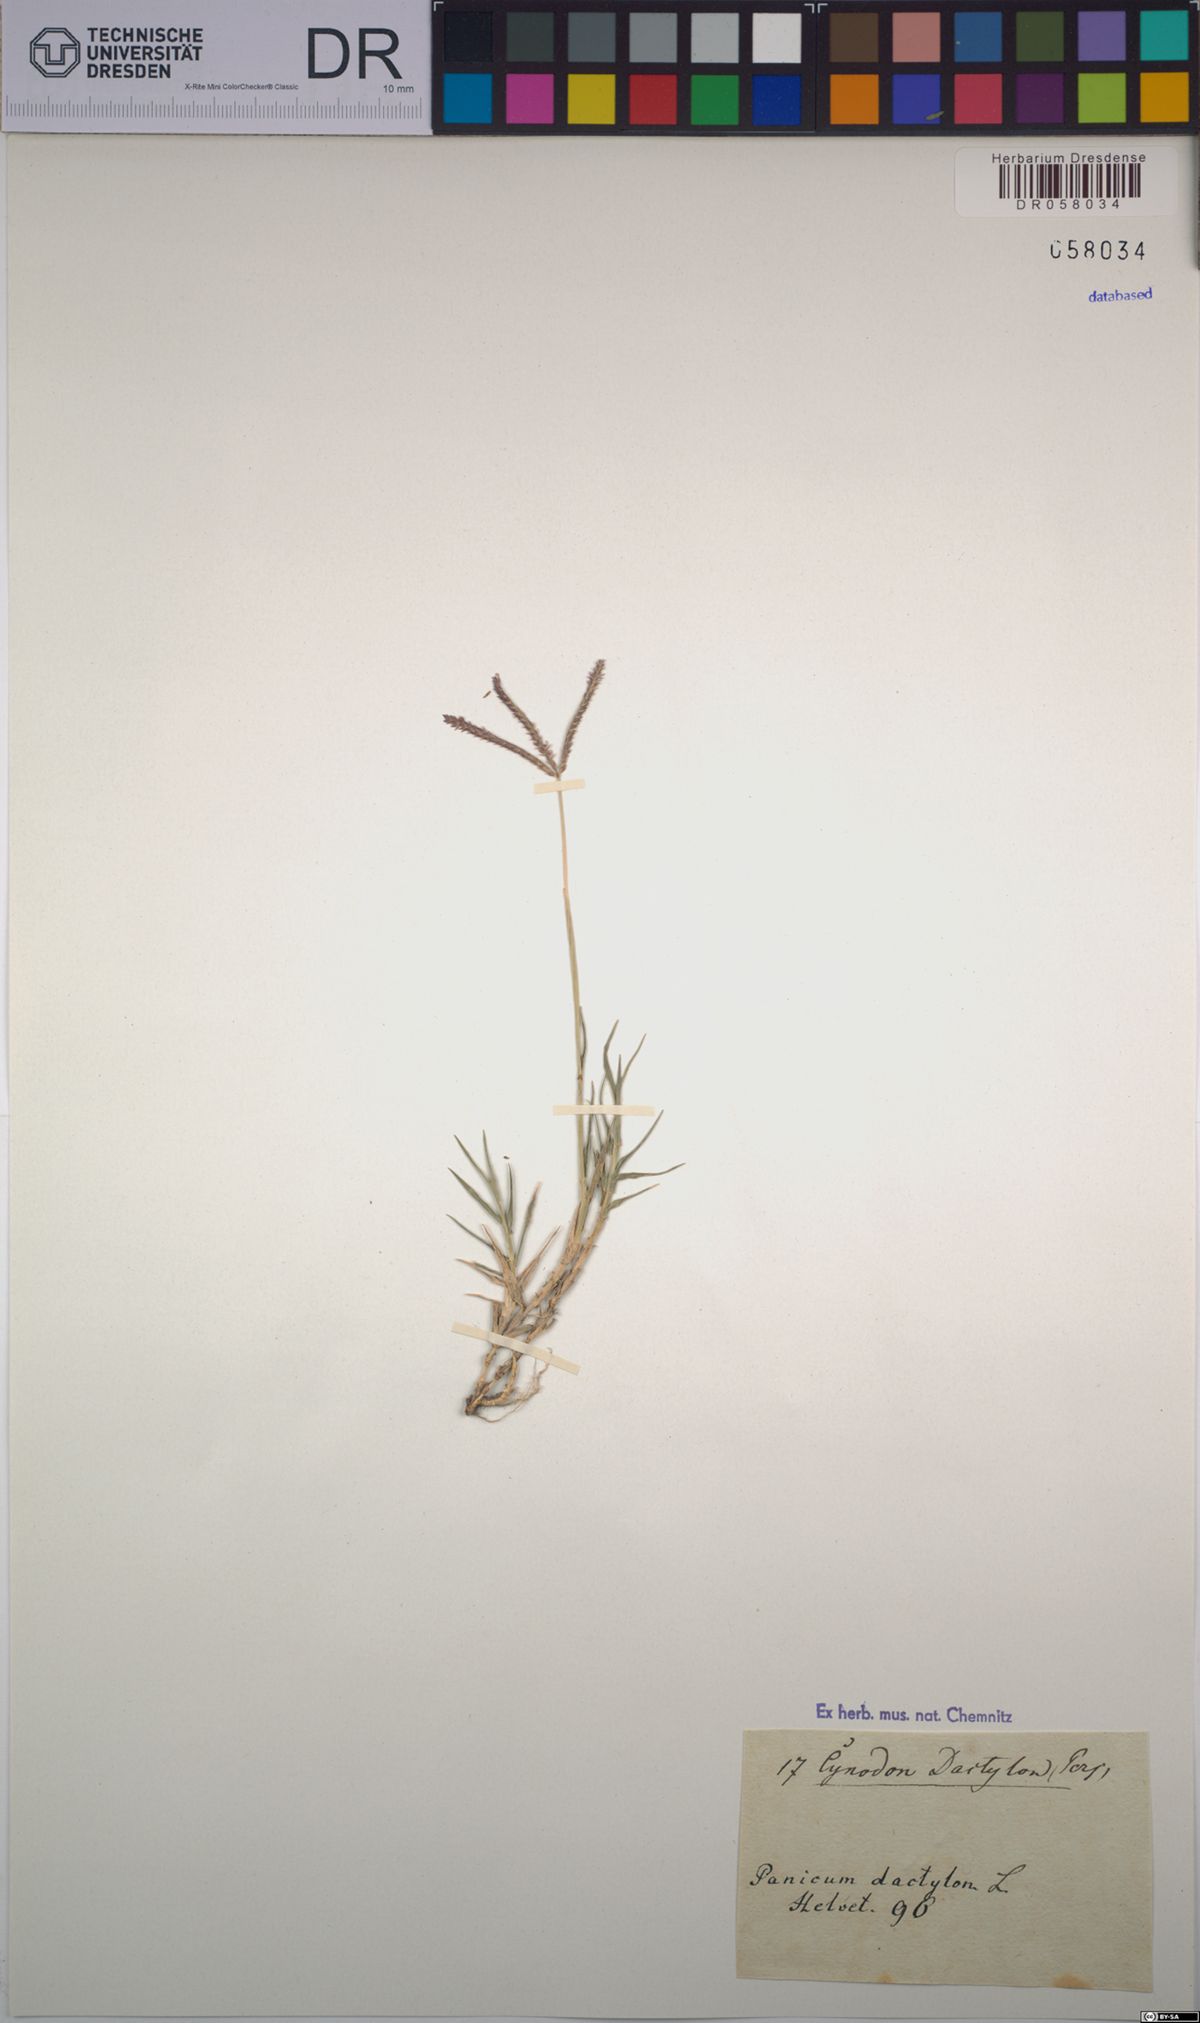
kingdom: Plantae
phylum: Tracheophyta
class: Liliopsida
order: Poales
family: Poaceae
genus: Cynodon
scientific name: Cynodon dactylon
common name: Bermuda grass
